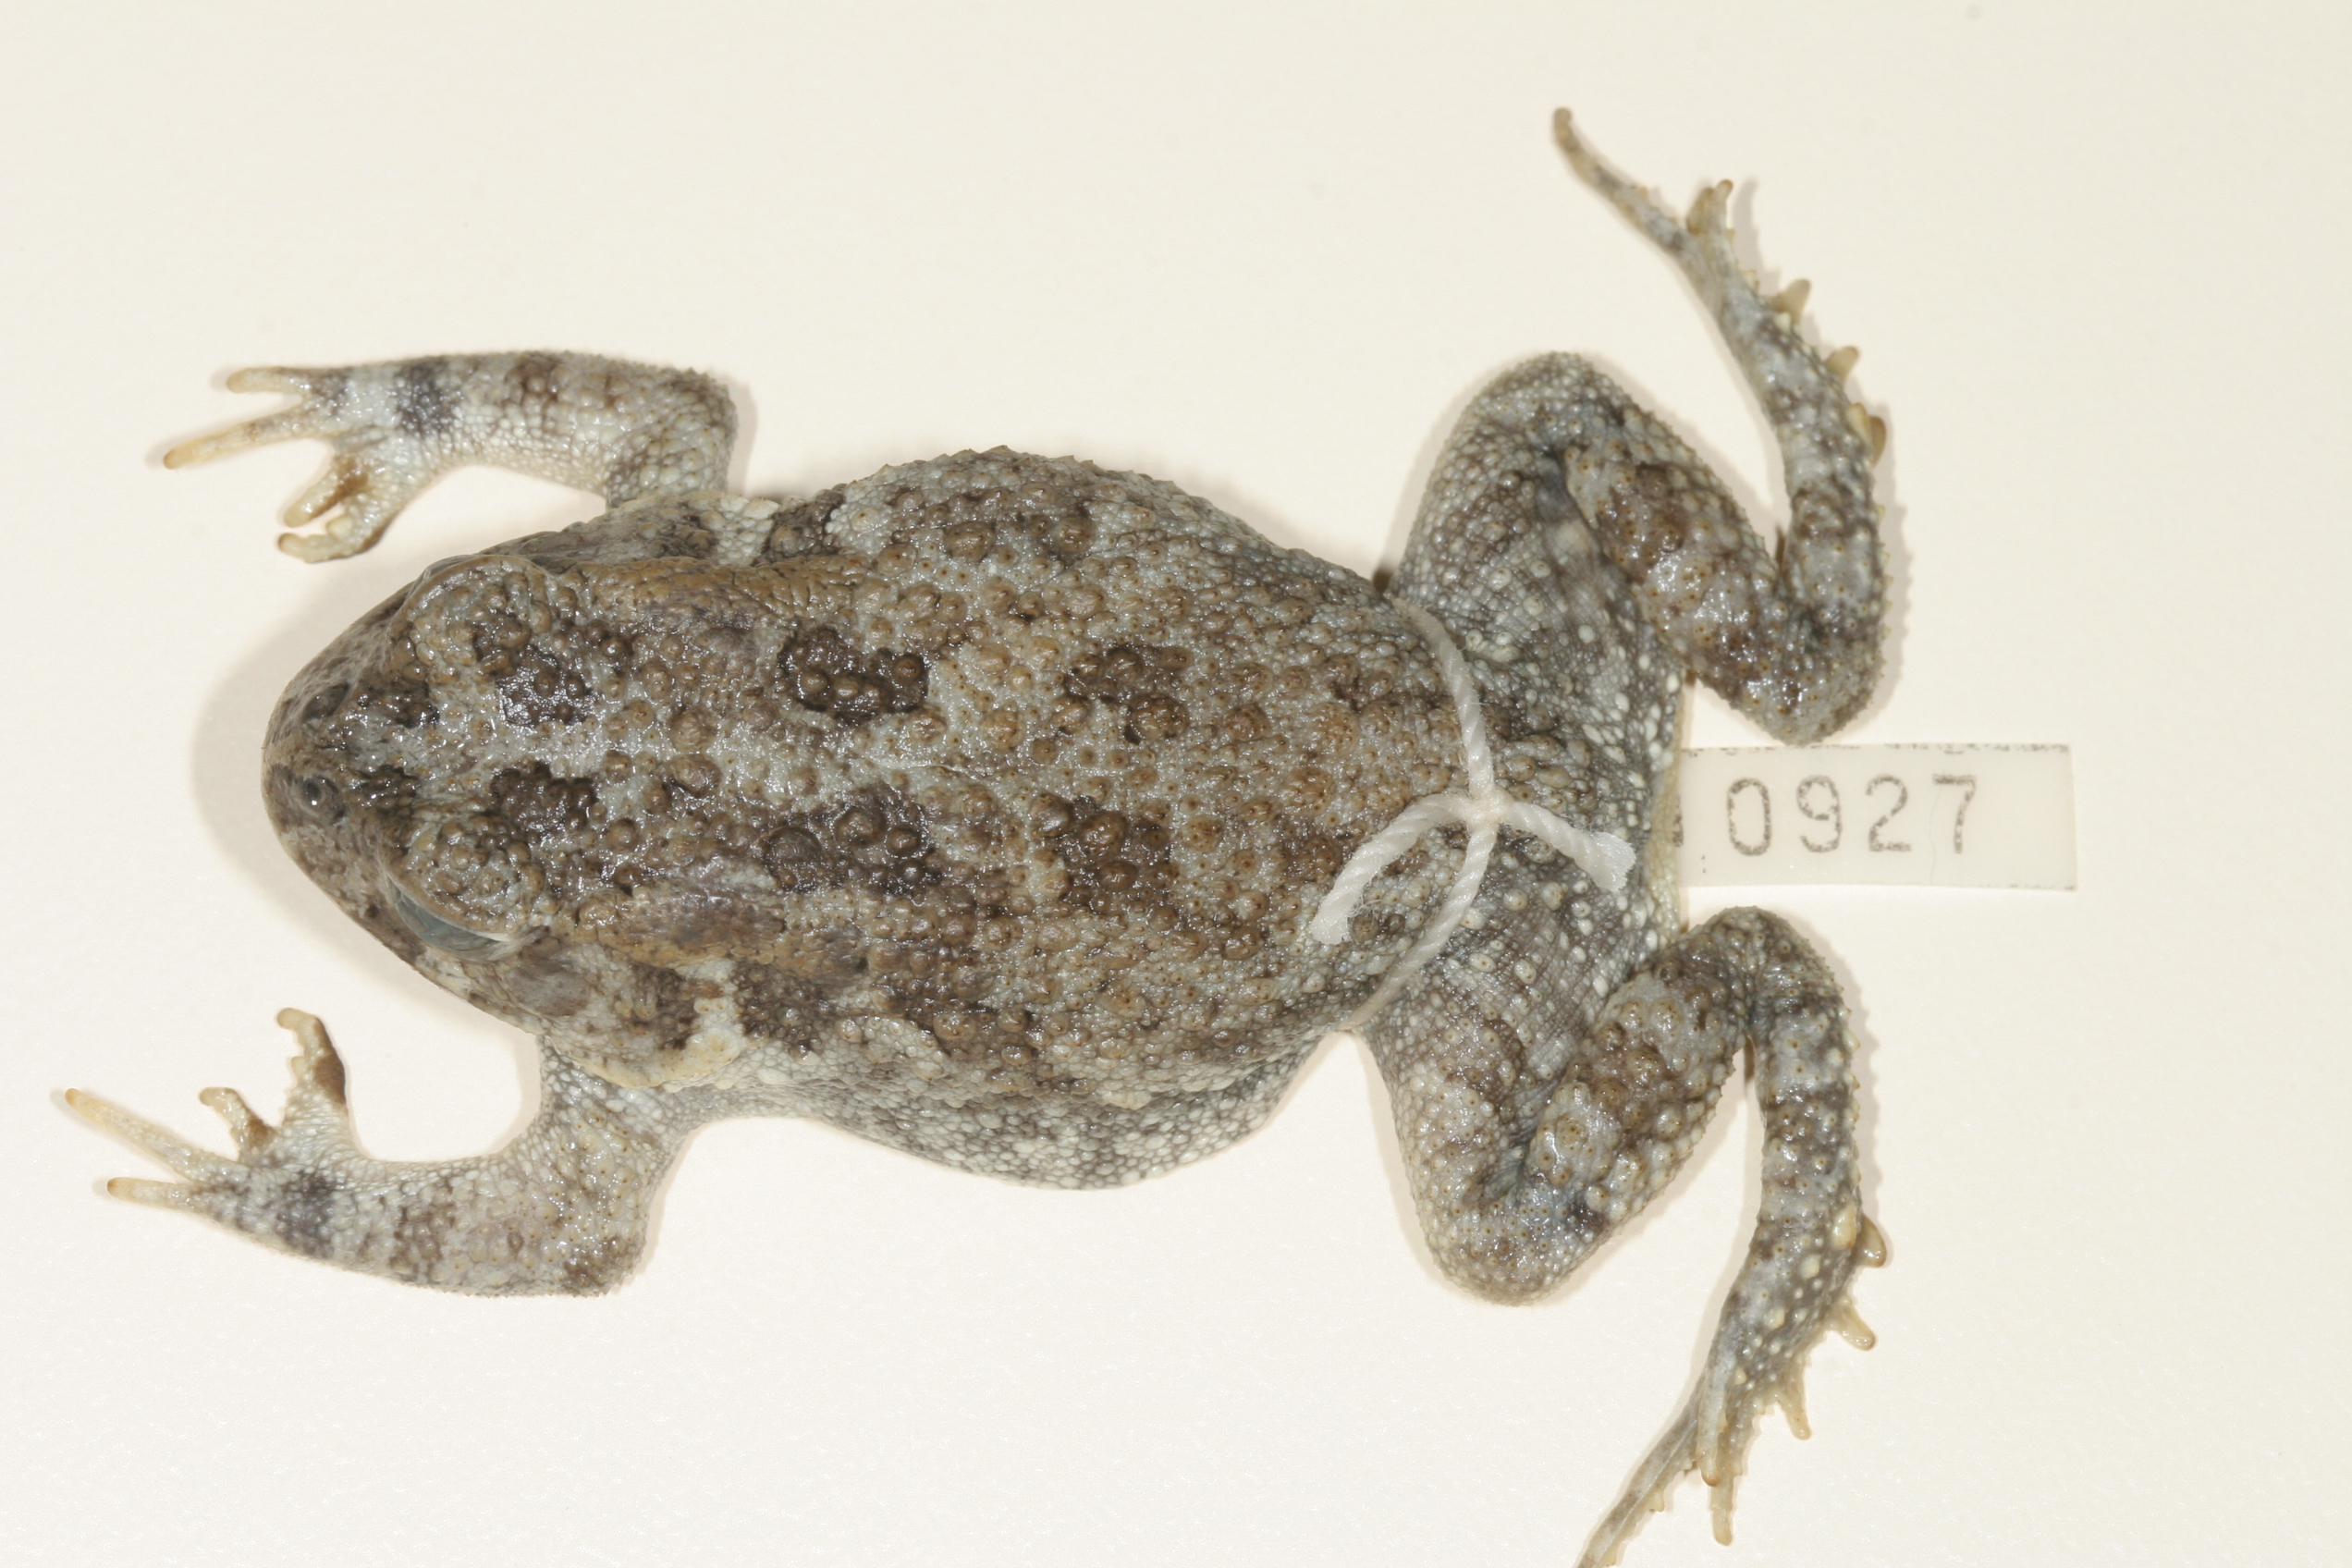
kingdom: Animalia
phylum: Chordata
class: Amphibia
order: Anura
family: Bufonidae
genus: Sclerophrys
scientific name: Sclerophrys gutturalis
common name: African common toad
